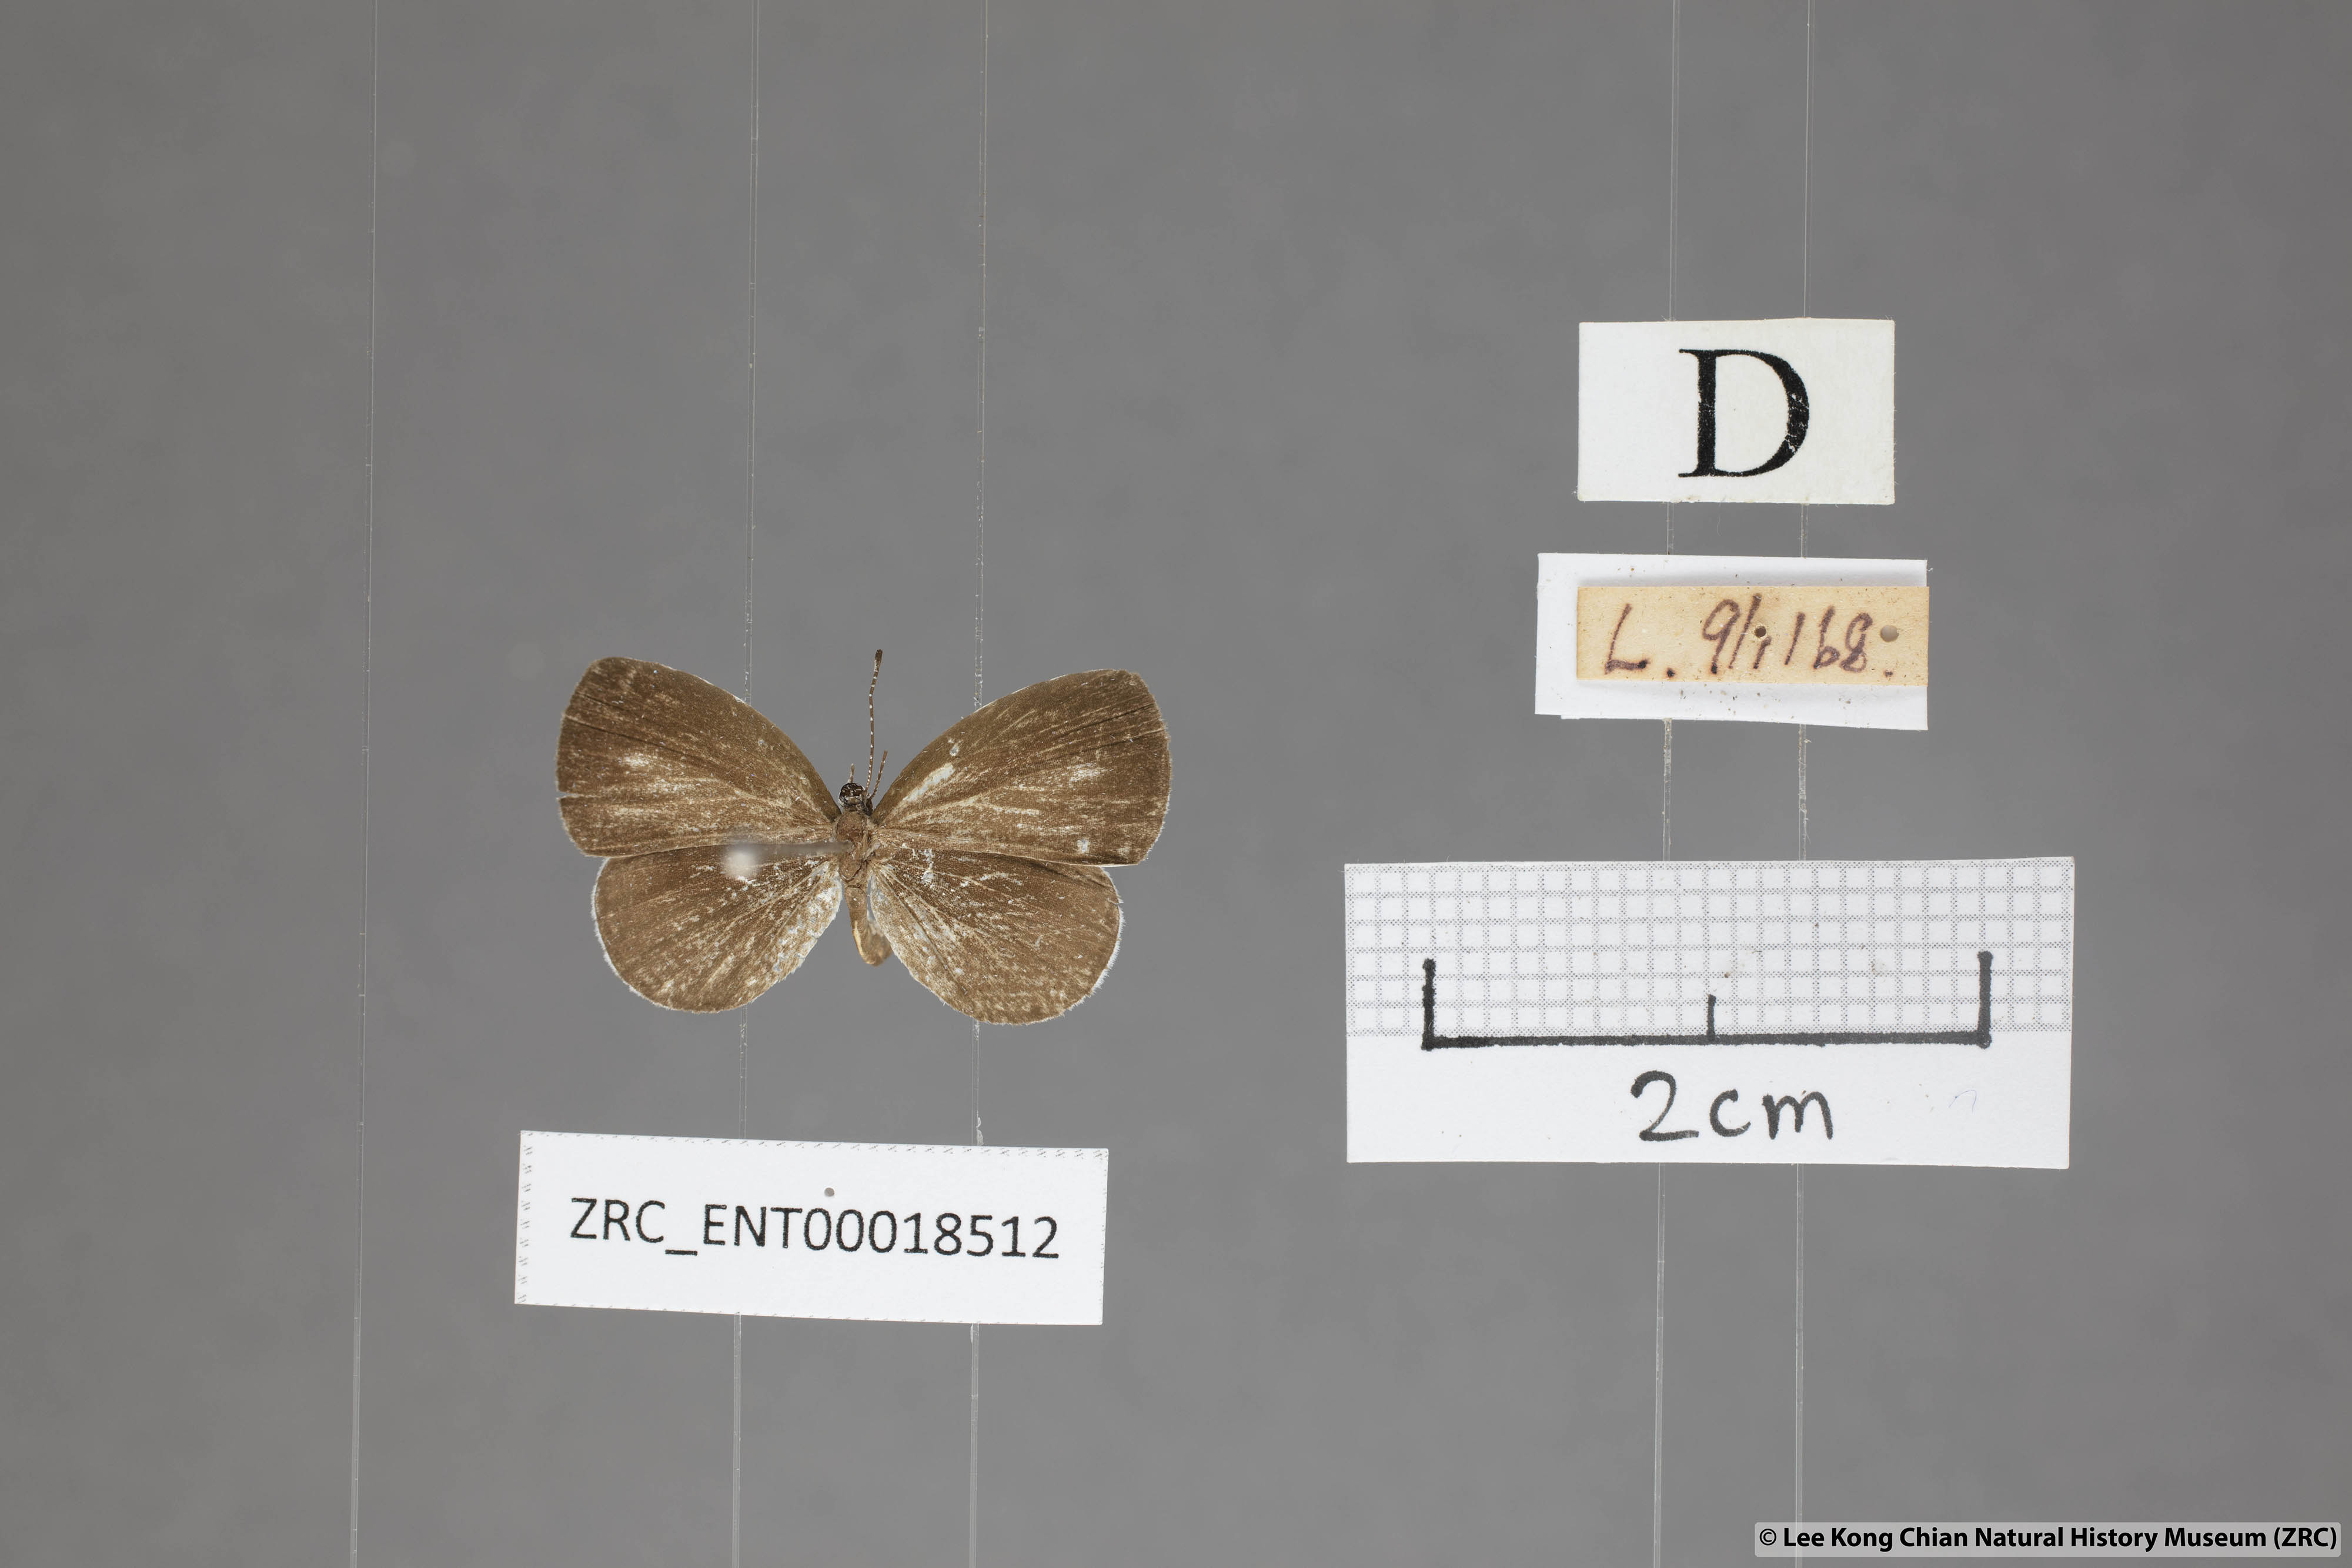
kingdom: Animalia
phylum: Arthropoda
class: Insecta
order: Lepidoptera
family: Lycaenidae
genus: Neopithecops
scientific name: Neopithecops zalmora
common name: Quaker
